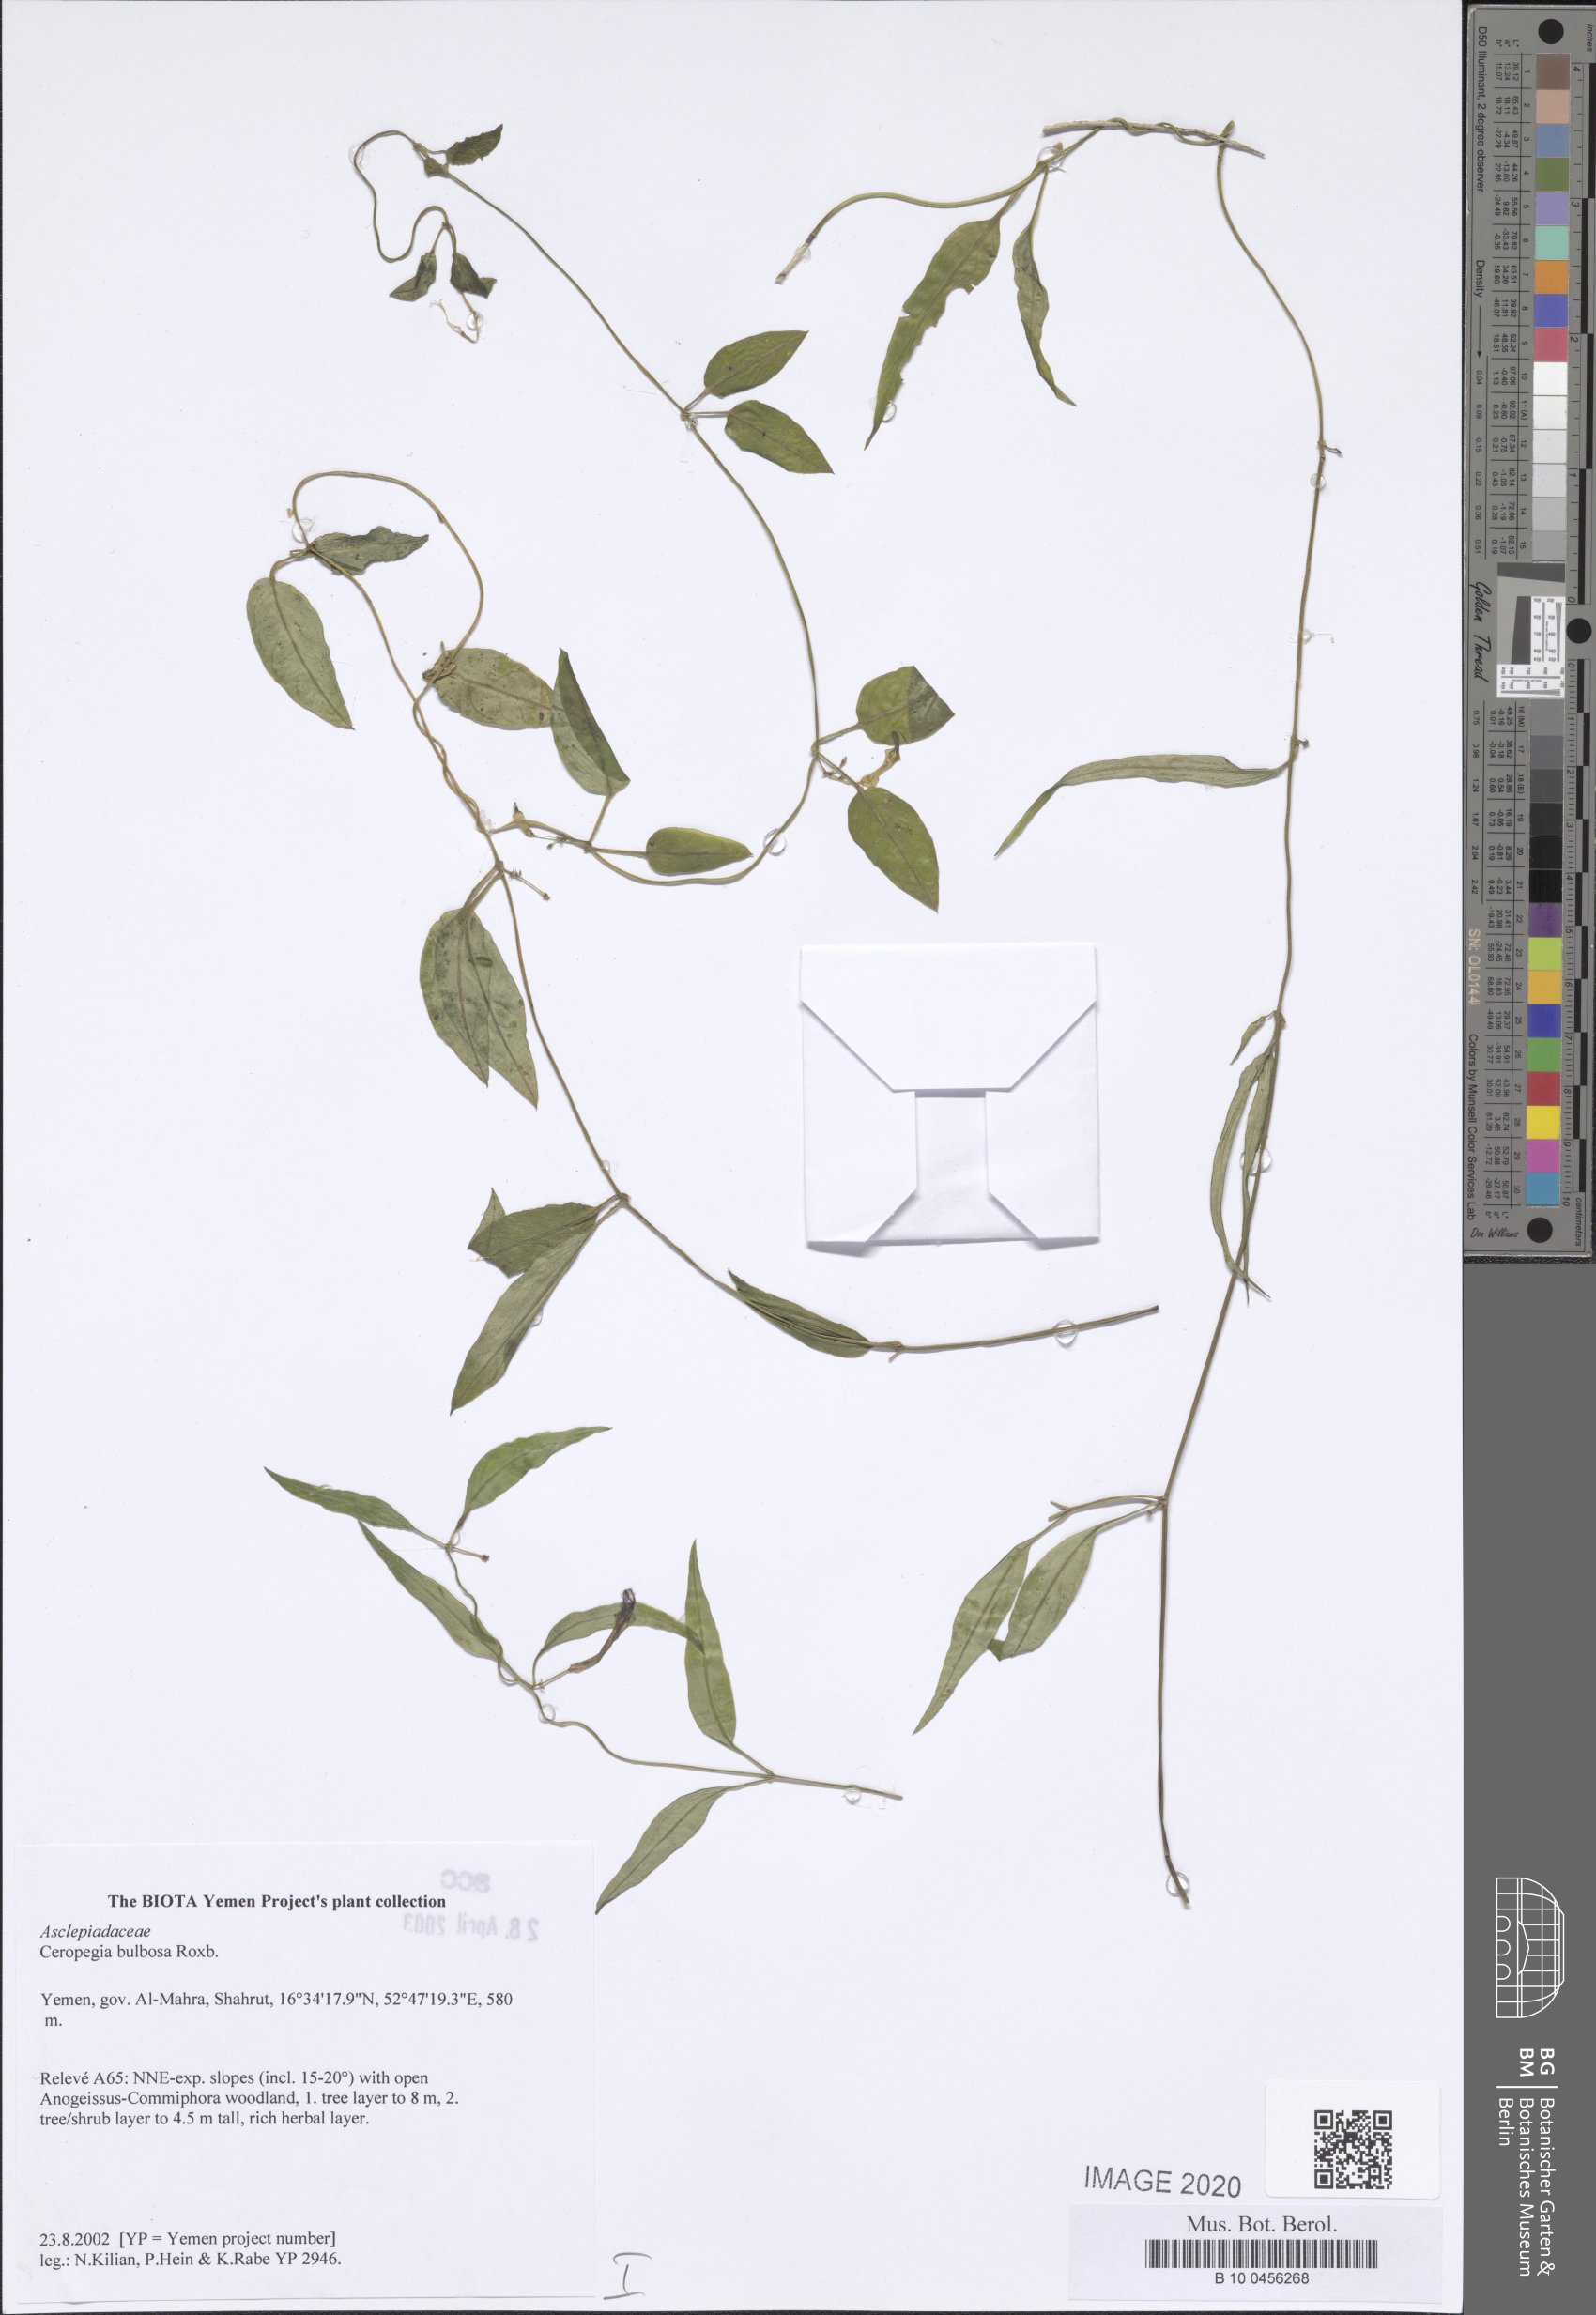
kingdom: Plantae
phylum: Tracheophyta
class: Magnoliopsida
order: Gentianales
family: Apocynaceae
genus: Ceropegia
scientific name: Ceropegia bulbosa
